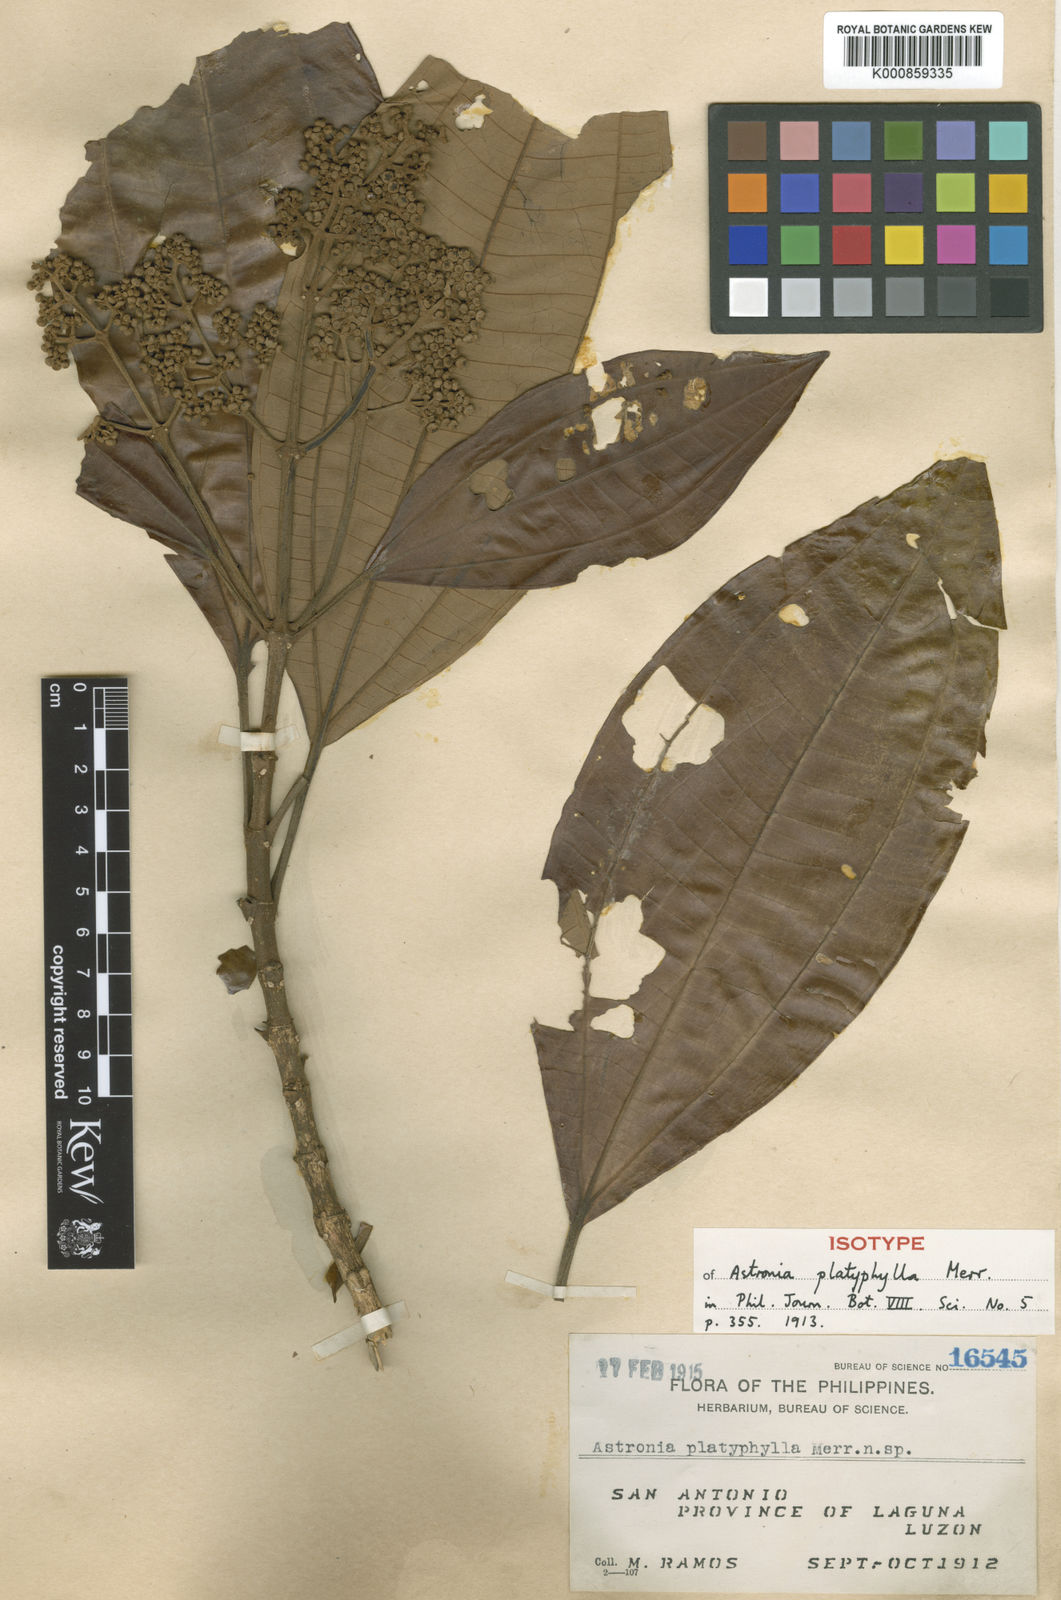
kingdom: Plantae
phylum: Tracheophyta
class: Magnoliopsida
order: Myrtales
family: Melastomataceae
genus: Astronia
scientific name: Astronia candolleana
